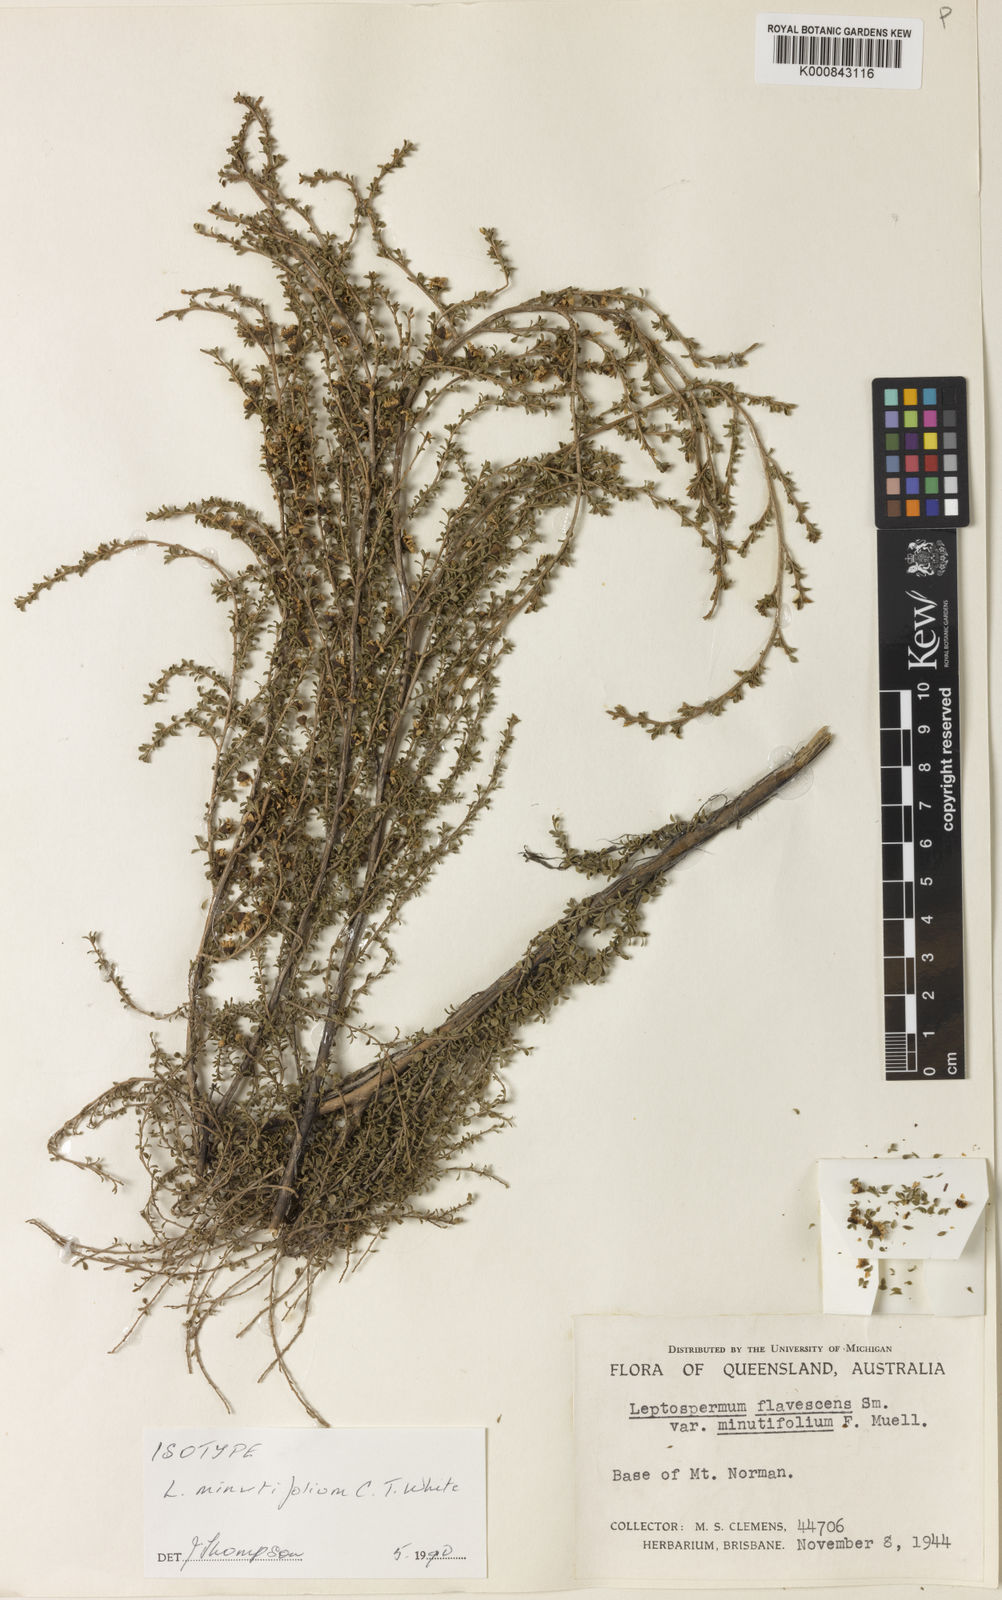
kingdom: Plantae
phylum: Tracheophyta
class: Magnoliopsida
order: Myrtales
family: Myrtaceae
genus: Leptospermum
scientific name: Leptospermum minutifolium
